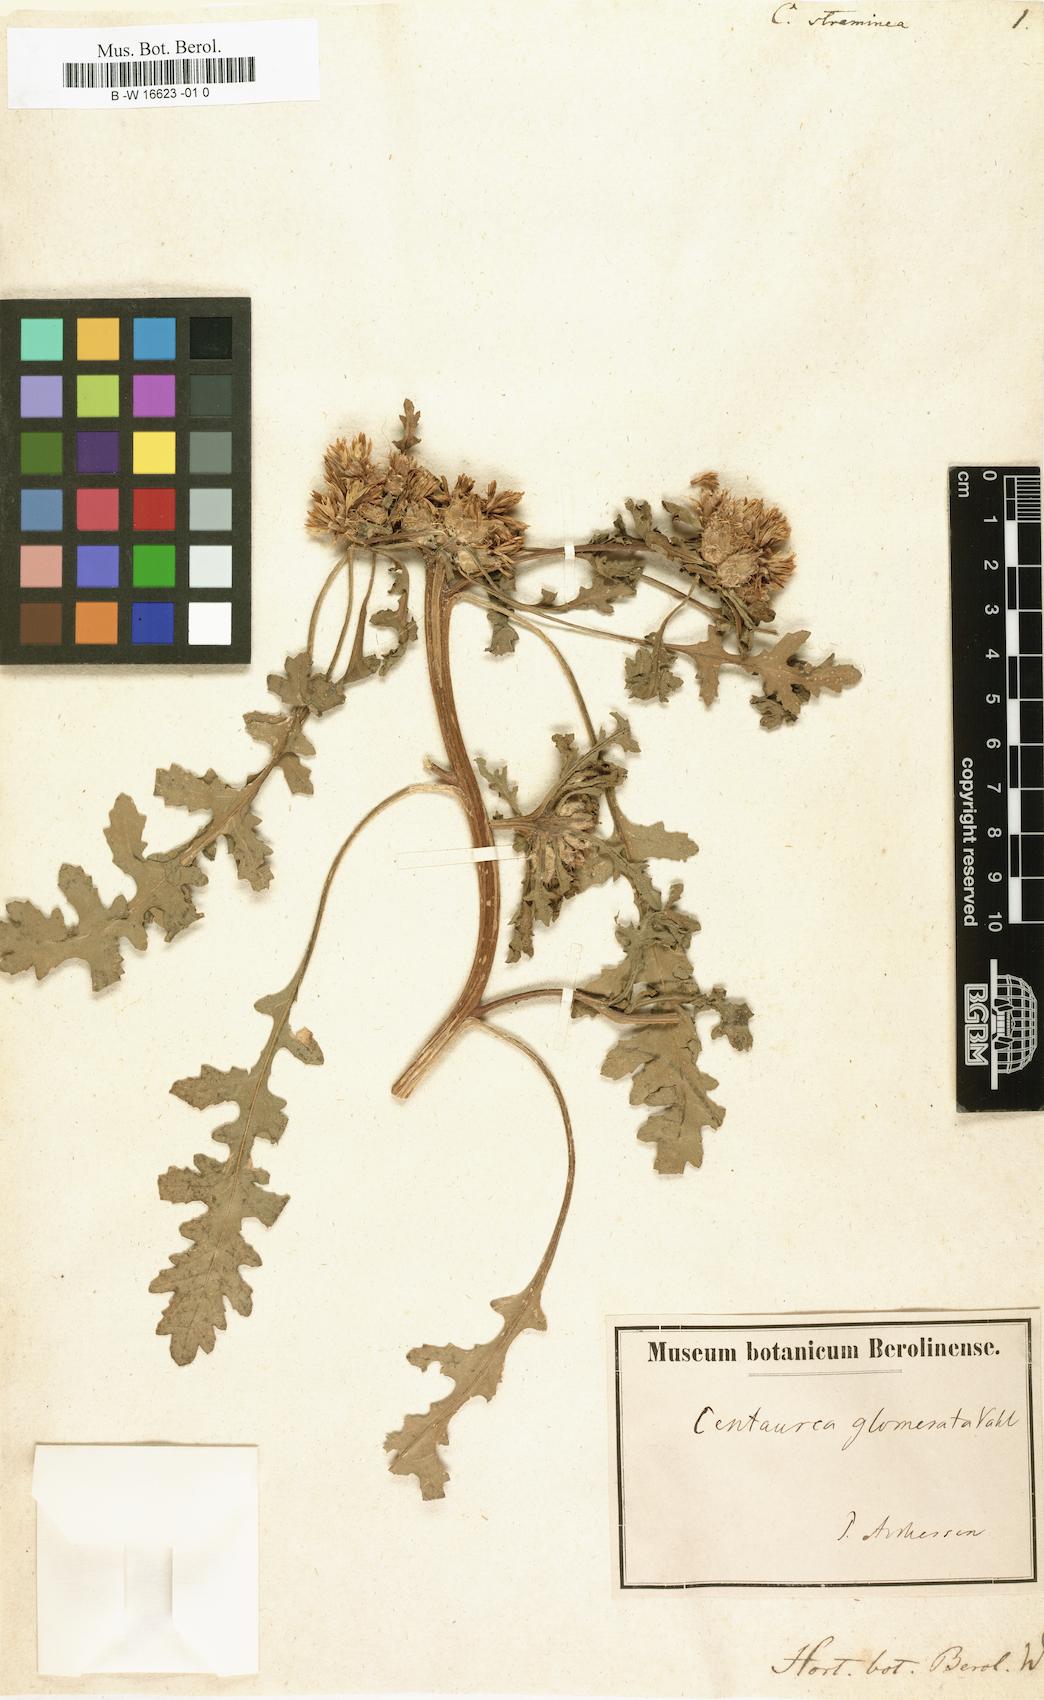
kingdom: Plantae
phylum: Tracheophyta
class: Magnoliopsida
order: Asterales
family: Asteraceae
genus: Centaurea
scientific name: Centaurea glomerata
